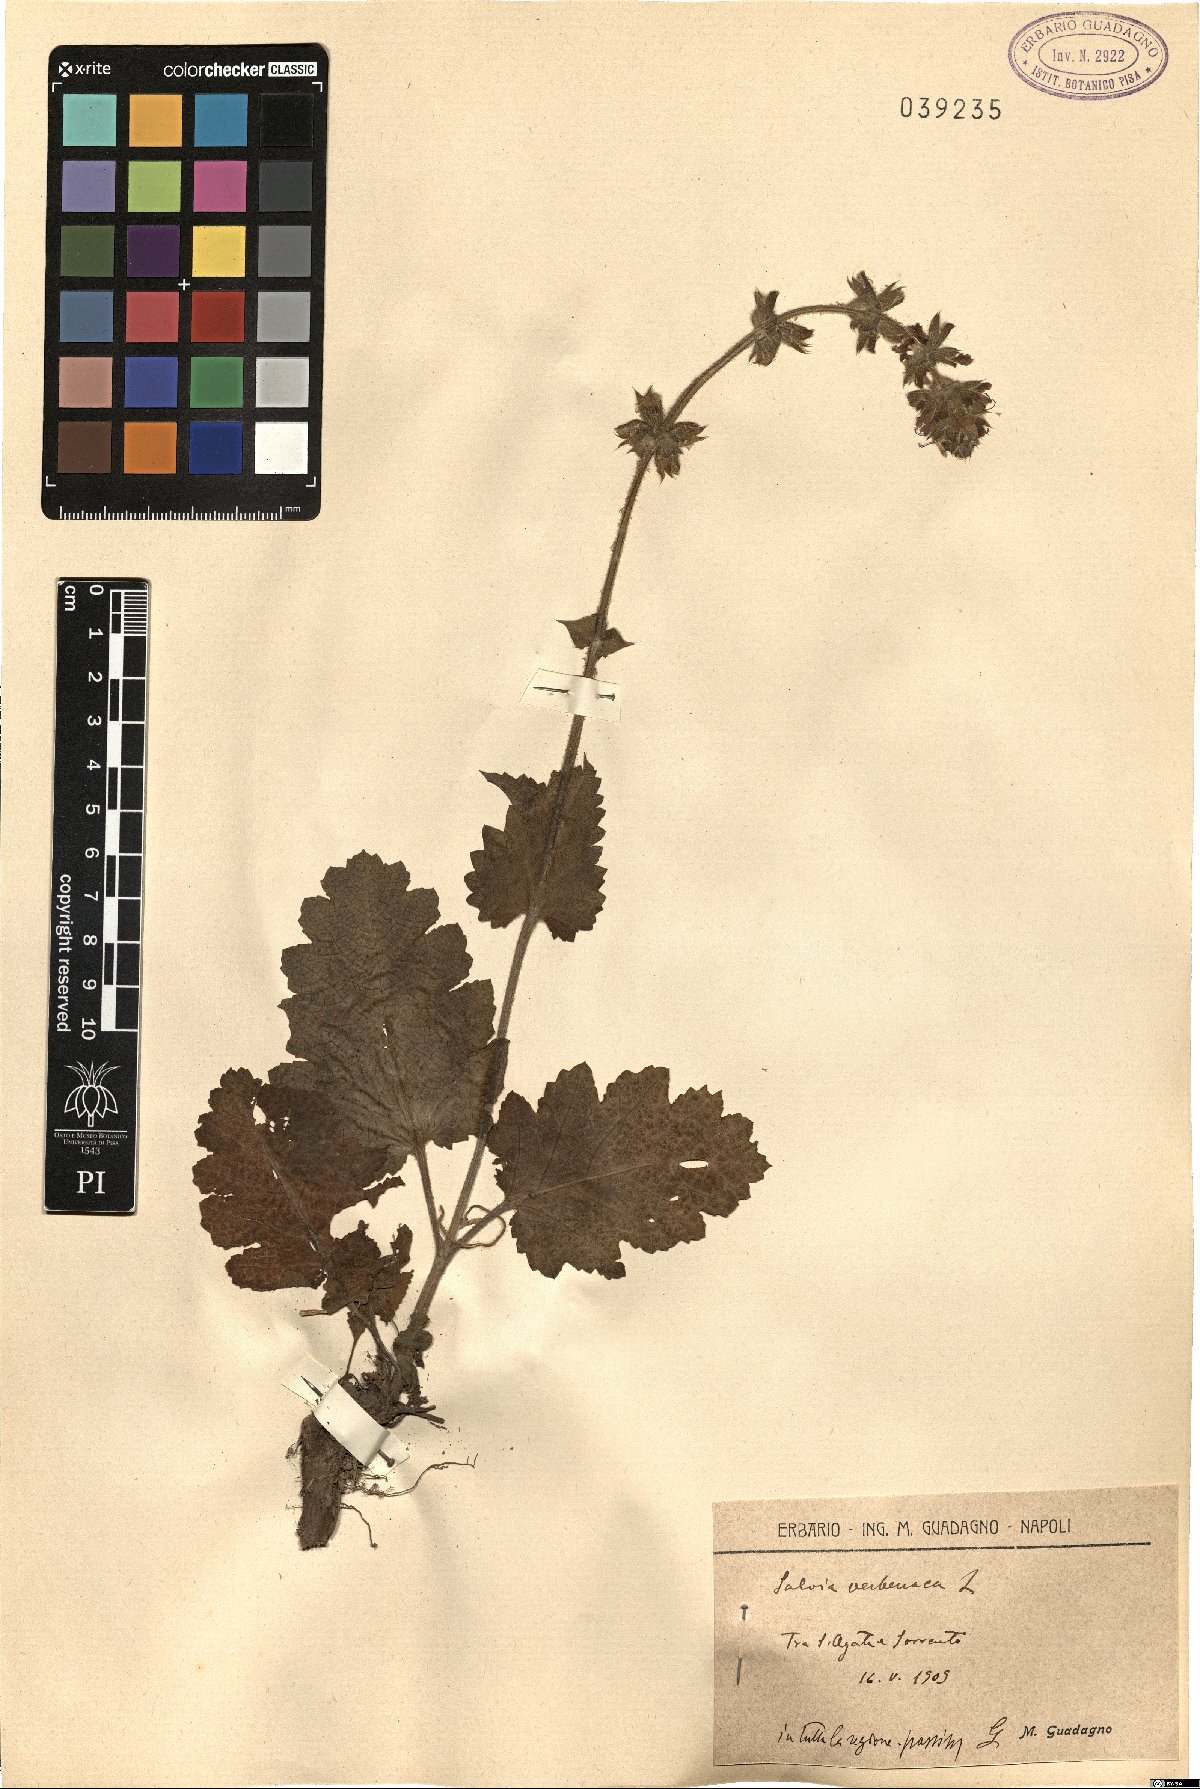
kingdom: Plantae
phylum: Tracheophyta
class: Magnoliopsida
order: Lamiales
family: Lamiaceae
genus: Salvia
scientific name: Salvia verbenaca
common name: Wild clary
